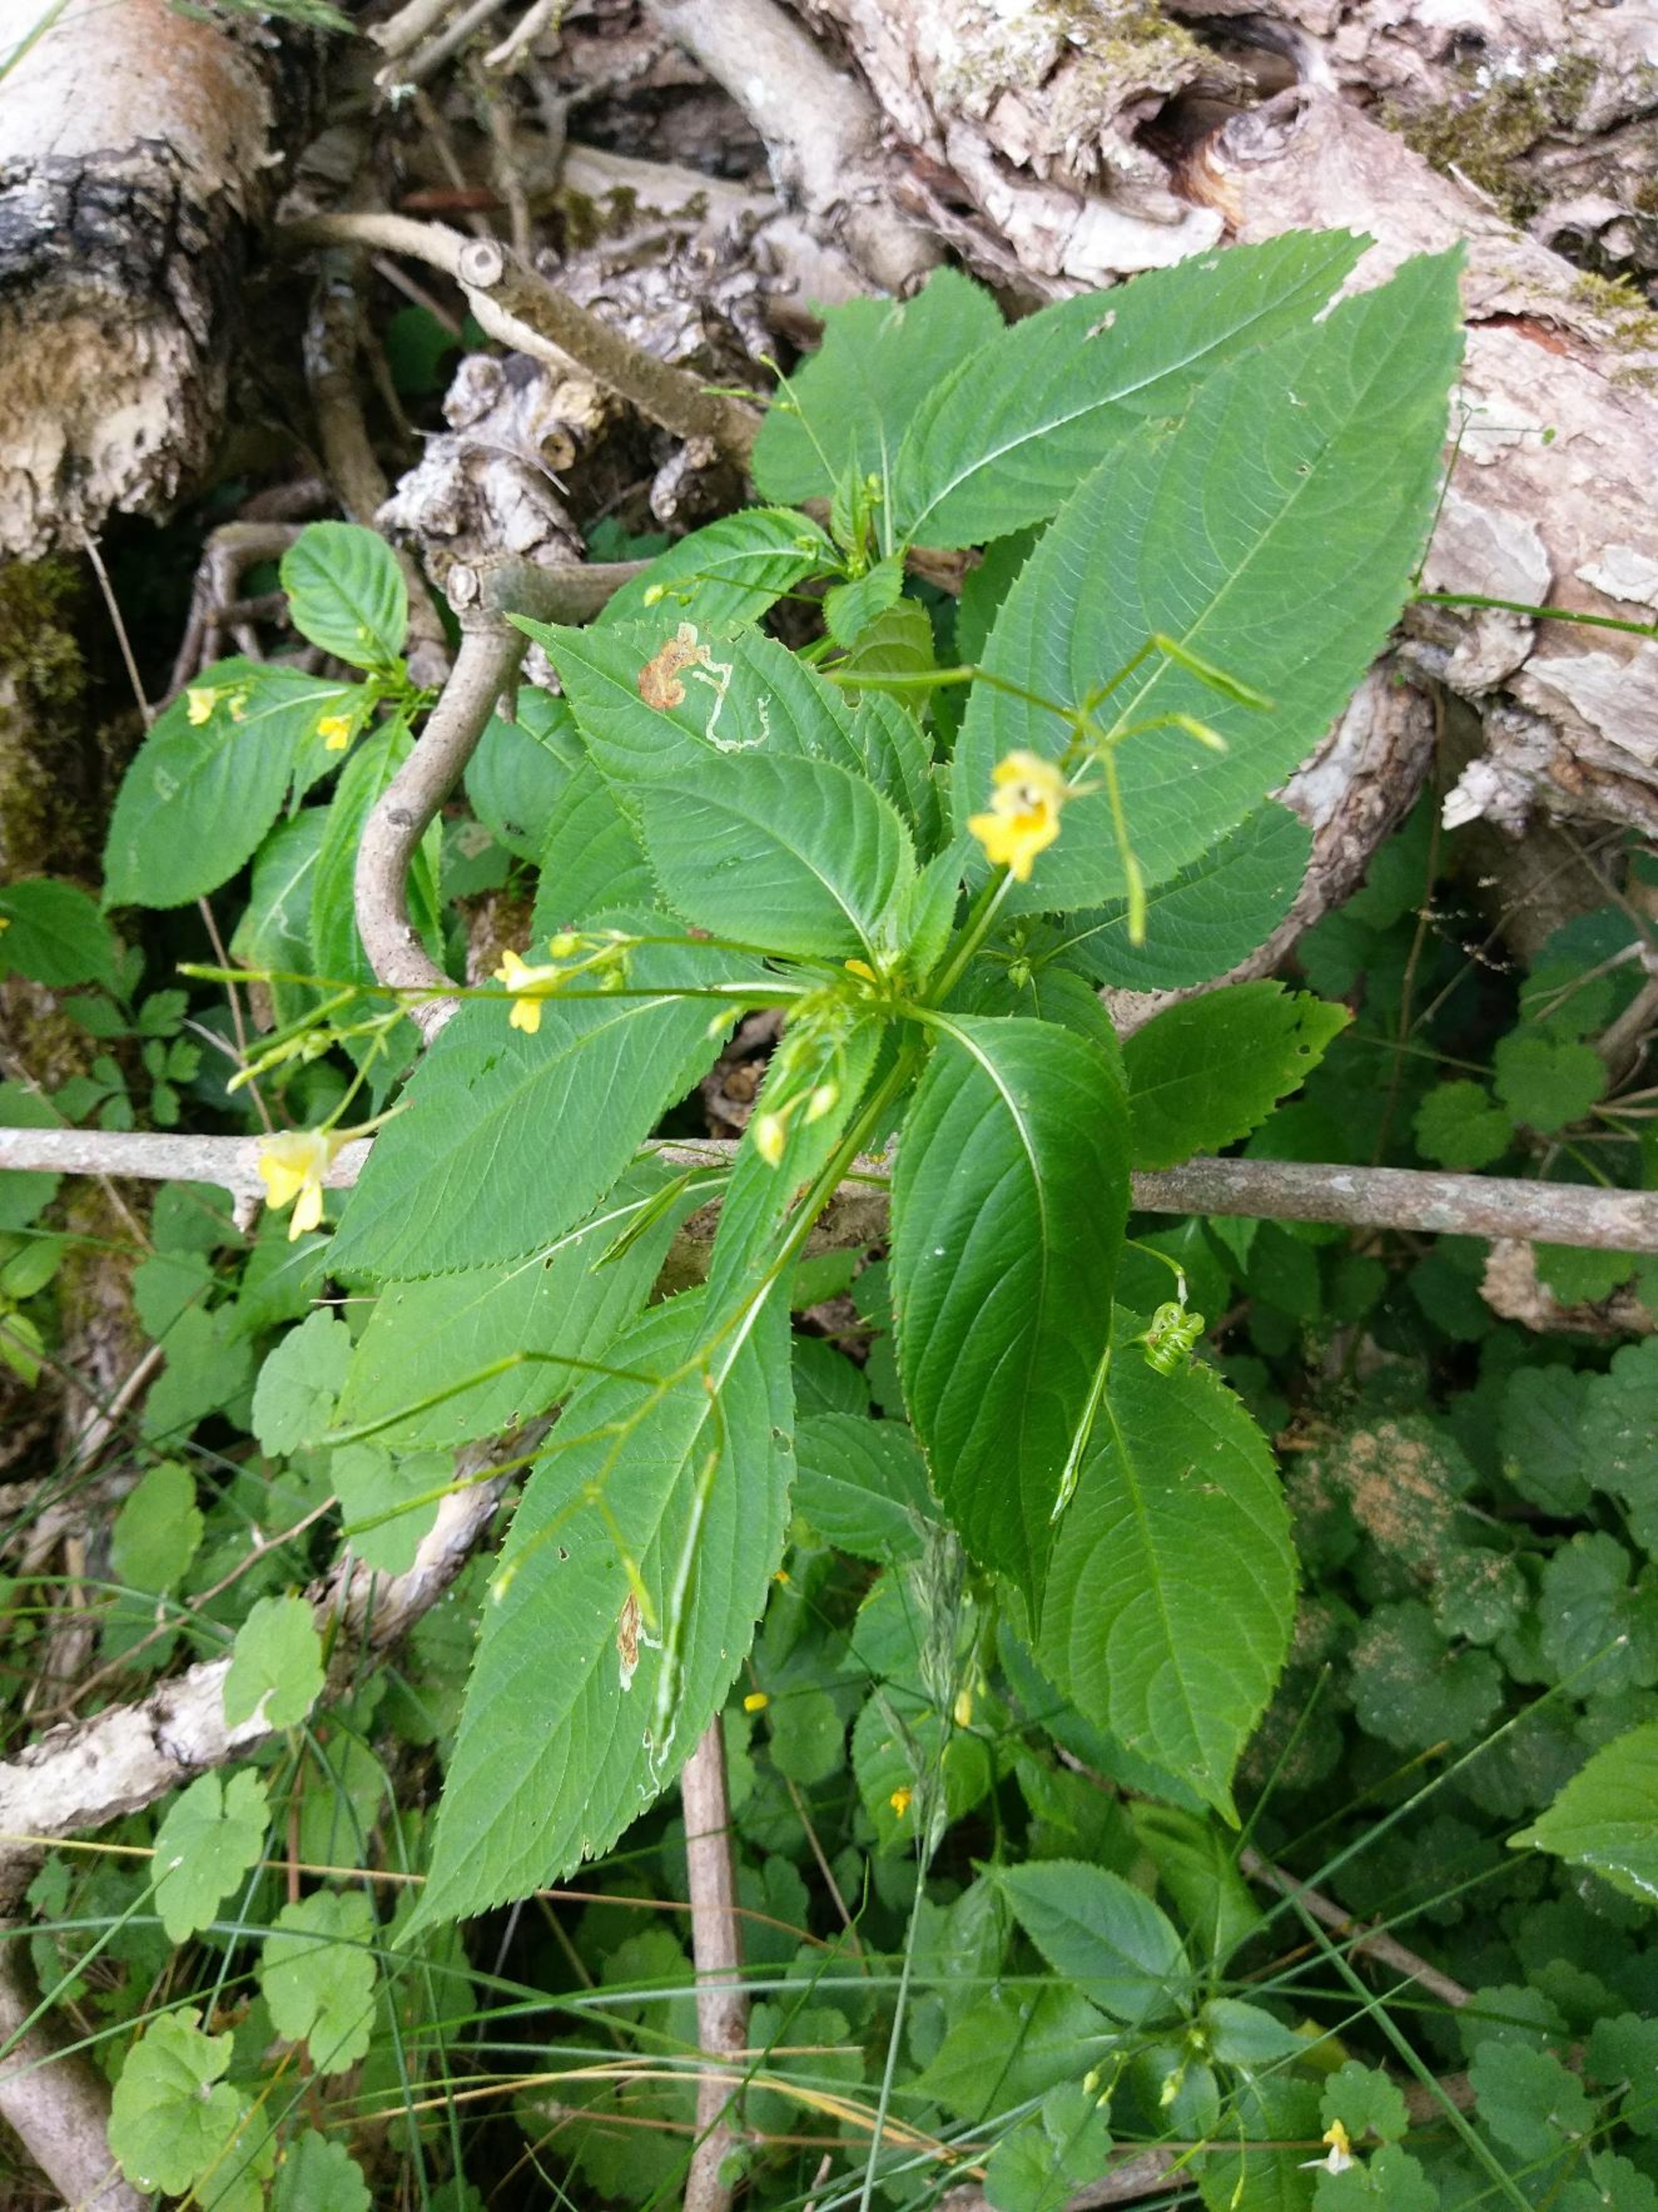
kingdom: Plantae
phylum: Tracheophyta
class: Magnoliopsida
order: Ericales
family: Balsaminaceae
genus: Impatiens
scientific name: Impatiens parviflora
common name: Småblomstret balsamin
